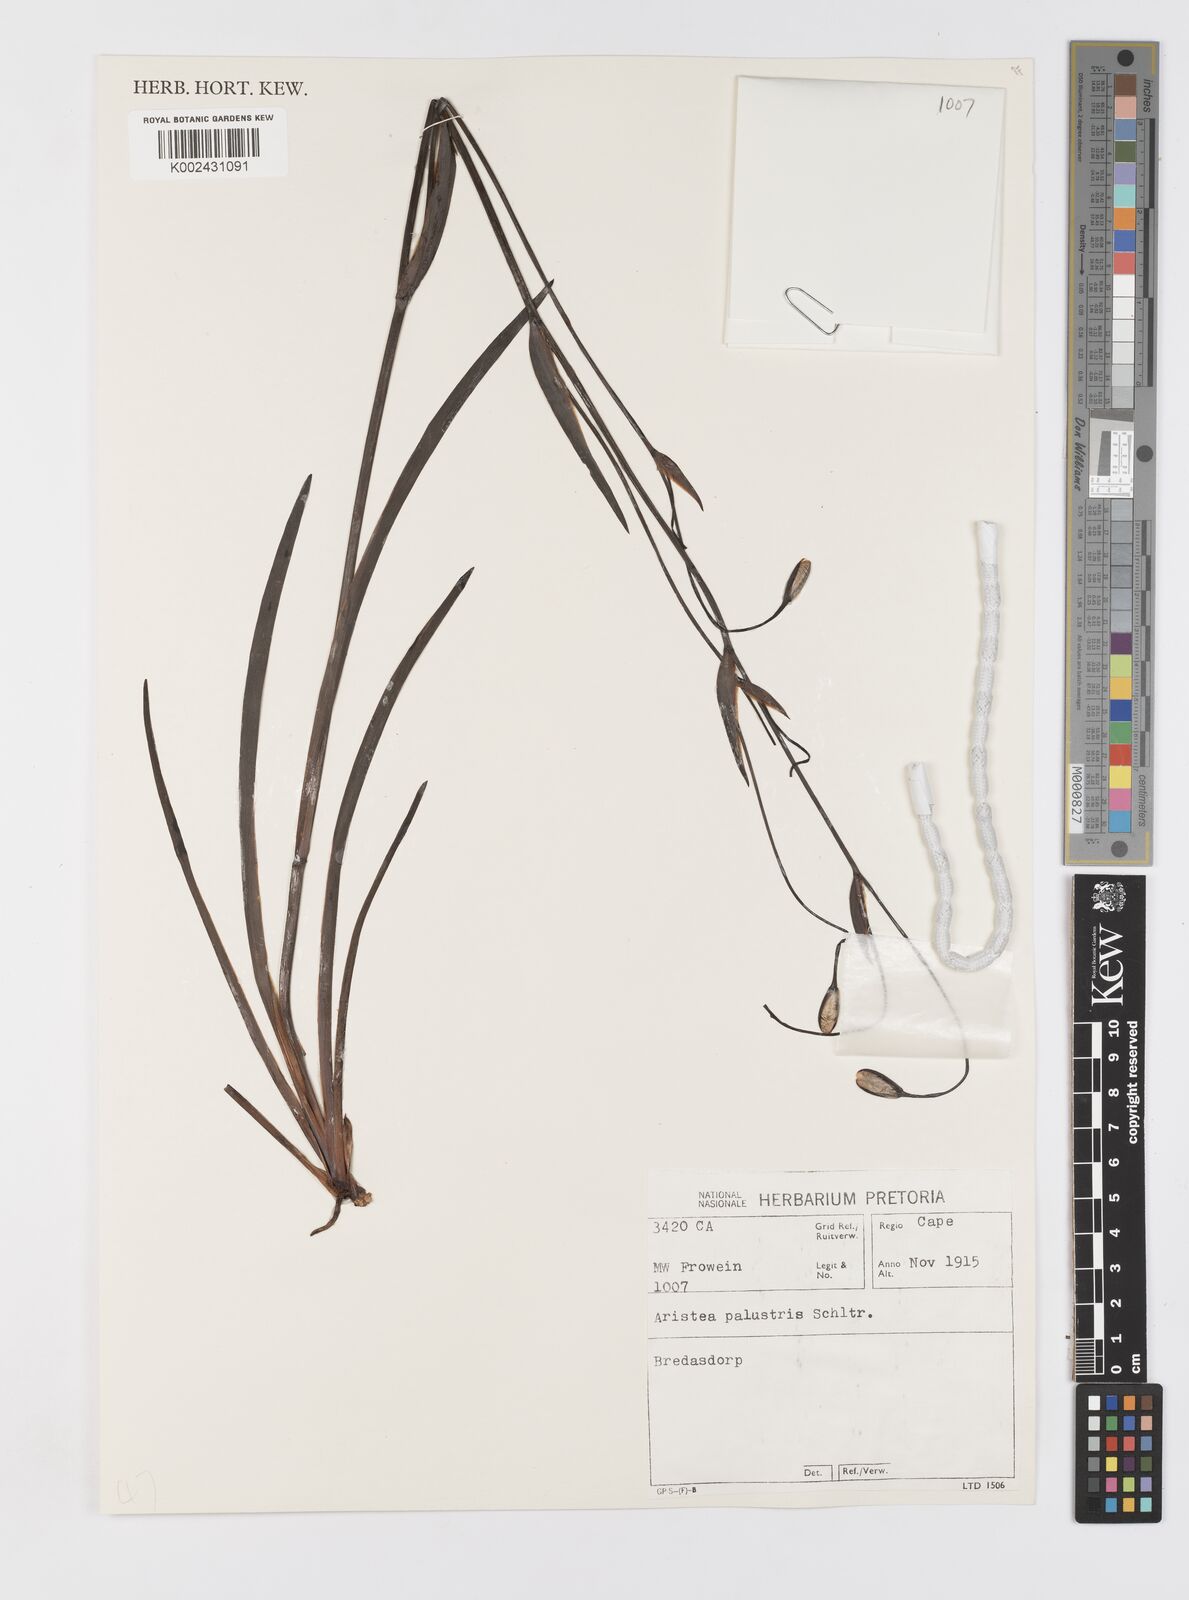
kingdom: Plantae
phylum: Tracheophyta
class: Liliopsida
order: Asparagales
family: Iridaceae
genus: Aristea
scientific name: Aristea palustris
